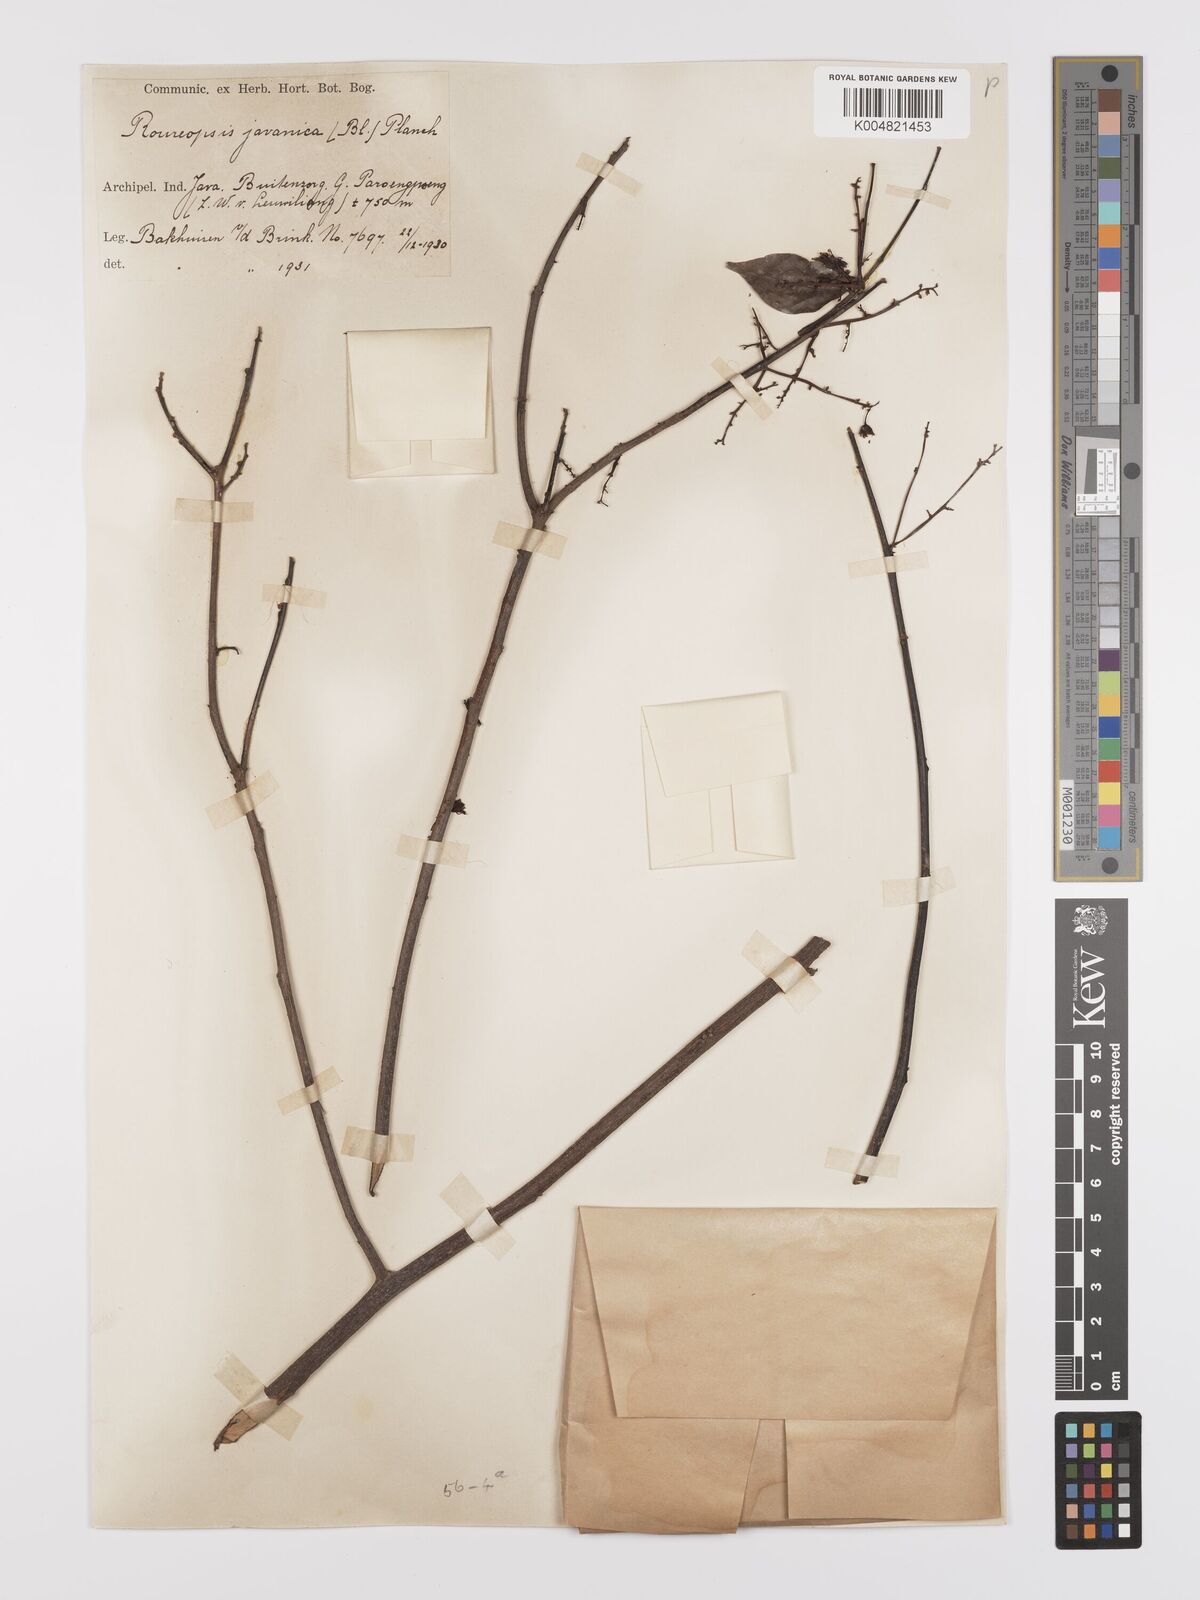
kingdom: Plantae
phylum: Tracheophyta
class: Magnoliopsida
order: Oxalidales
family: Connaraceae
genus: Rourea
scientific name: Rourea emarginata
